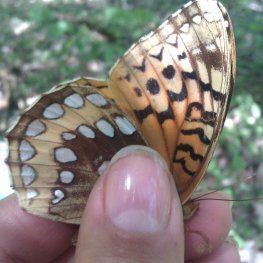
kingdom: Animalia
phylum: Arthropoda
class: Insecta
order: Lepidoptera
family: Nymphalidae
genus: Speyeria
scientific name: Speyeria cybele
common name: Great Spangled Fritillary
